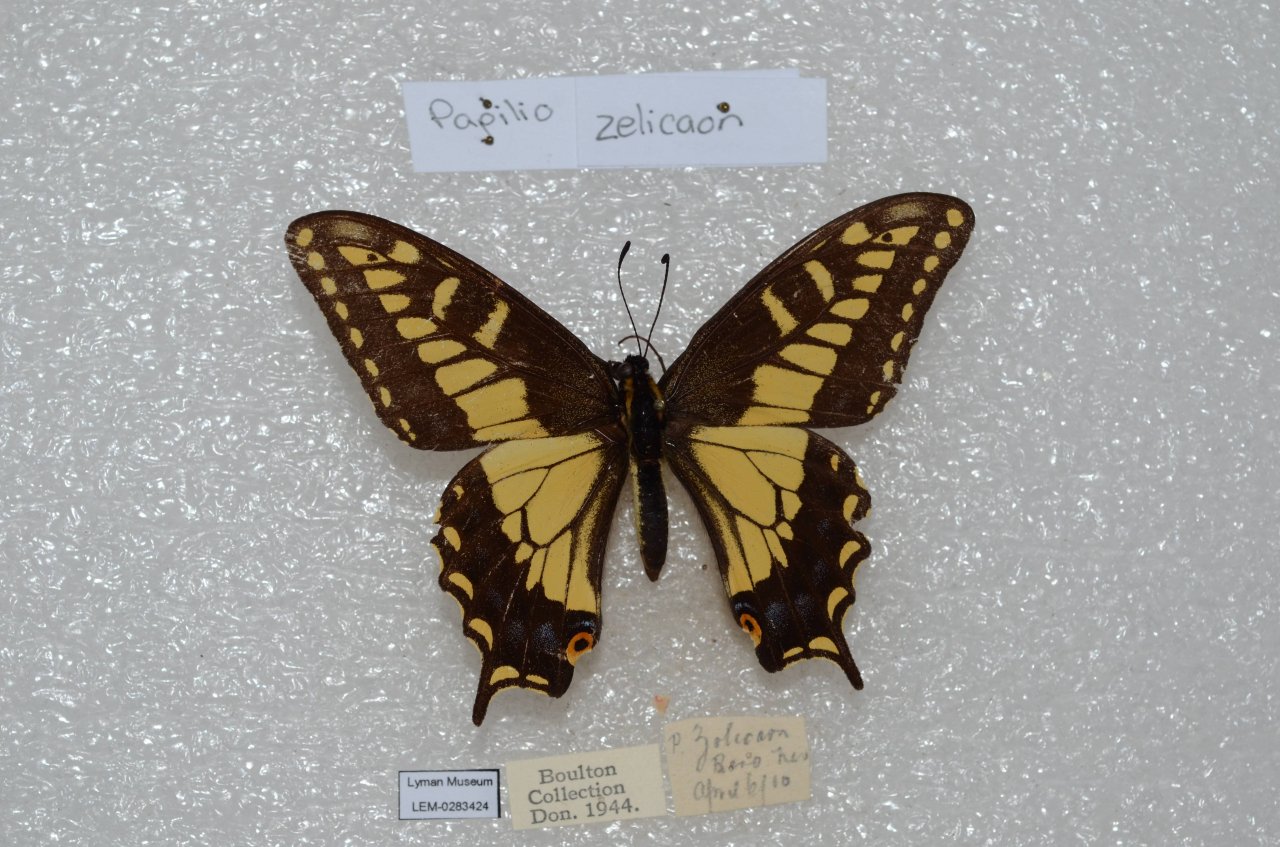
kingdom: Animalia
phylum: Arthropoda
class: Insecta
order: Lepidoptera
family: Papilionidae
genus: Papilio
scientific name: Papilio zelicaon
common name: Anise Swallowtail
